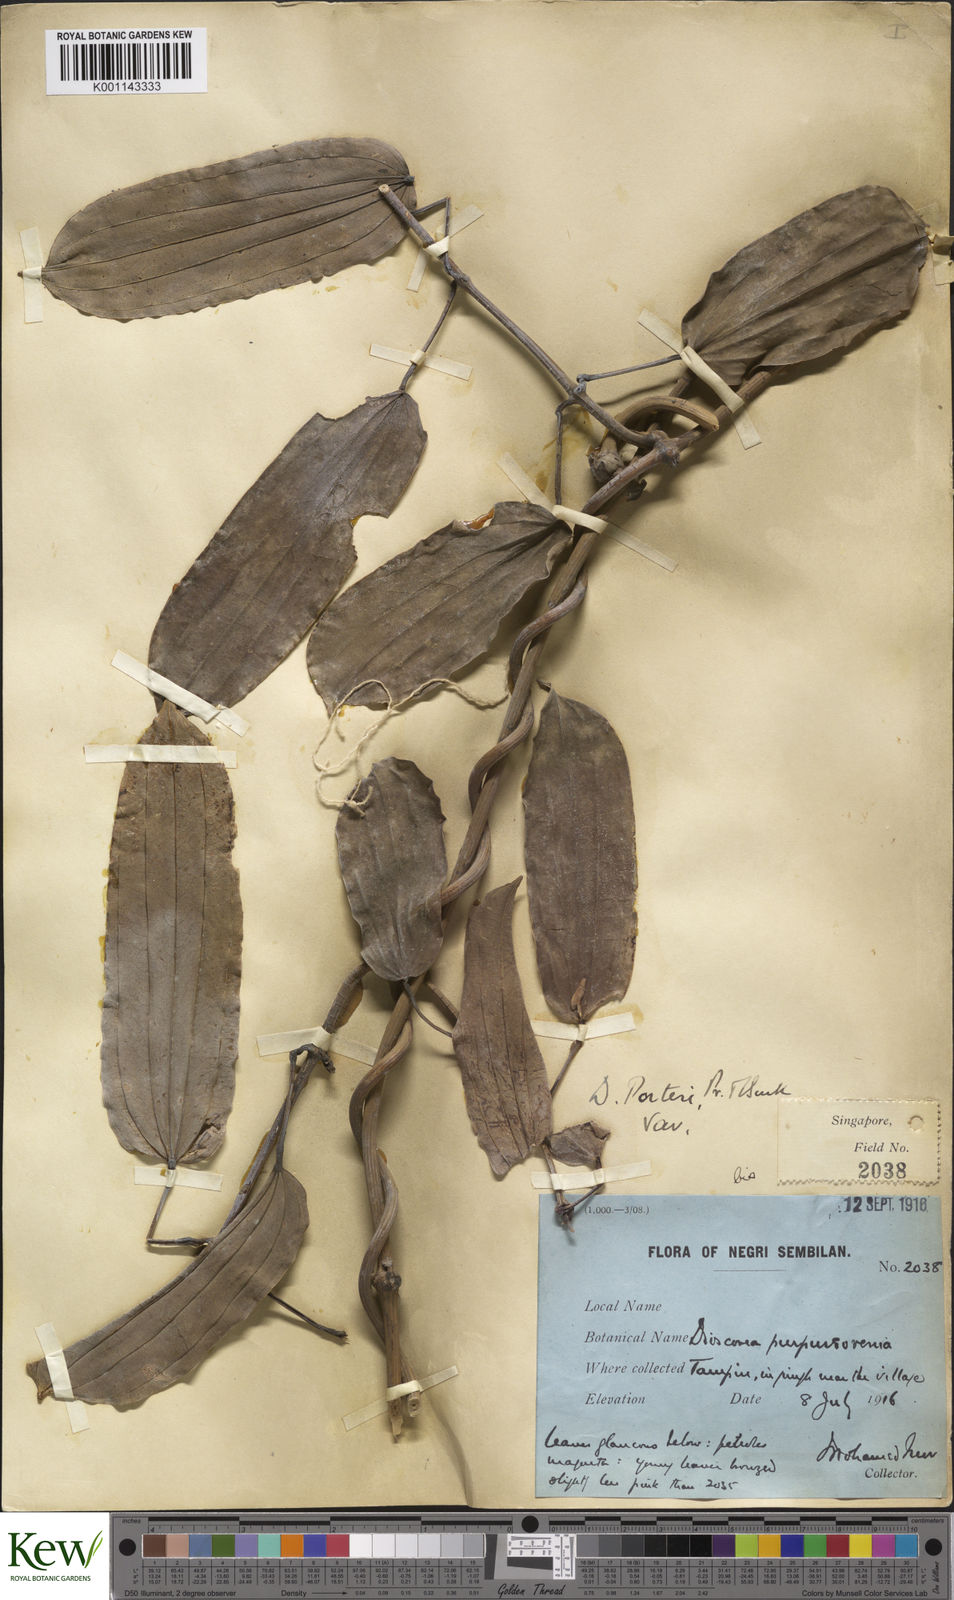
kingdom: Plantae
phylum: Tracheophyta
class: Liliopsida
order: Dioscoreales
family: Dioscoreaceae
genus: Dioscorea
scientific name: Dioscorea kingii
